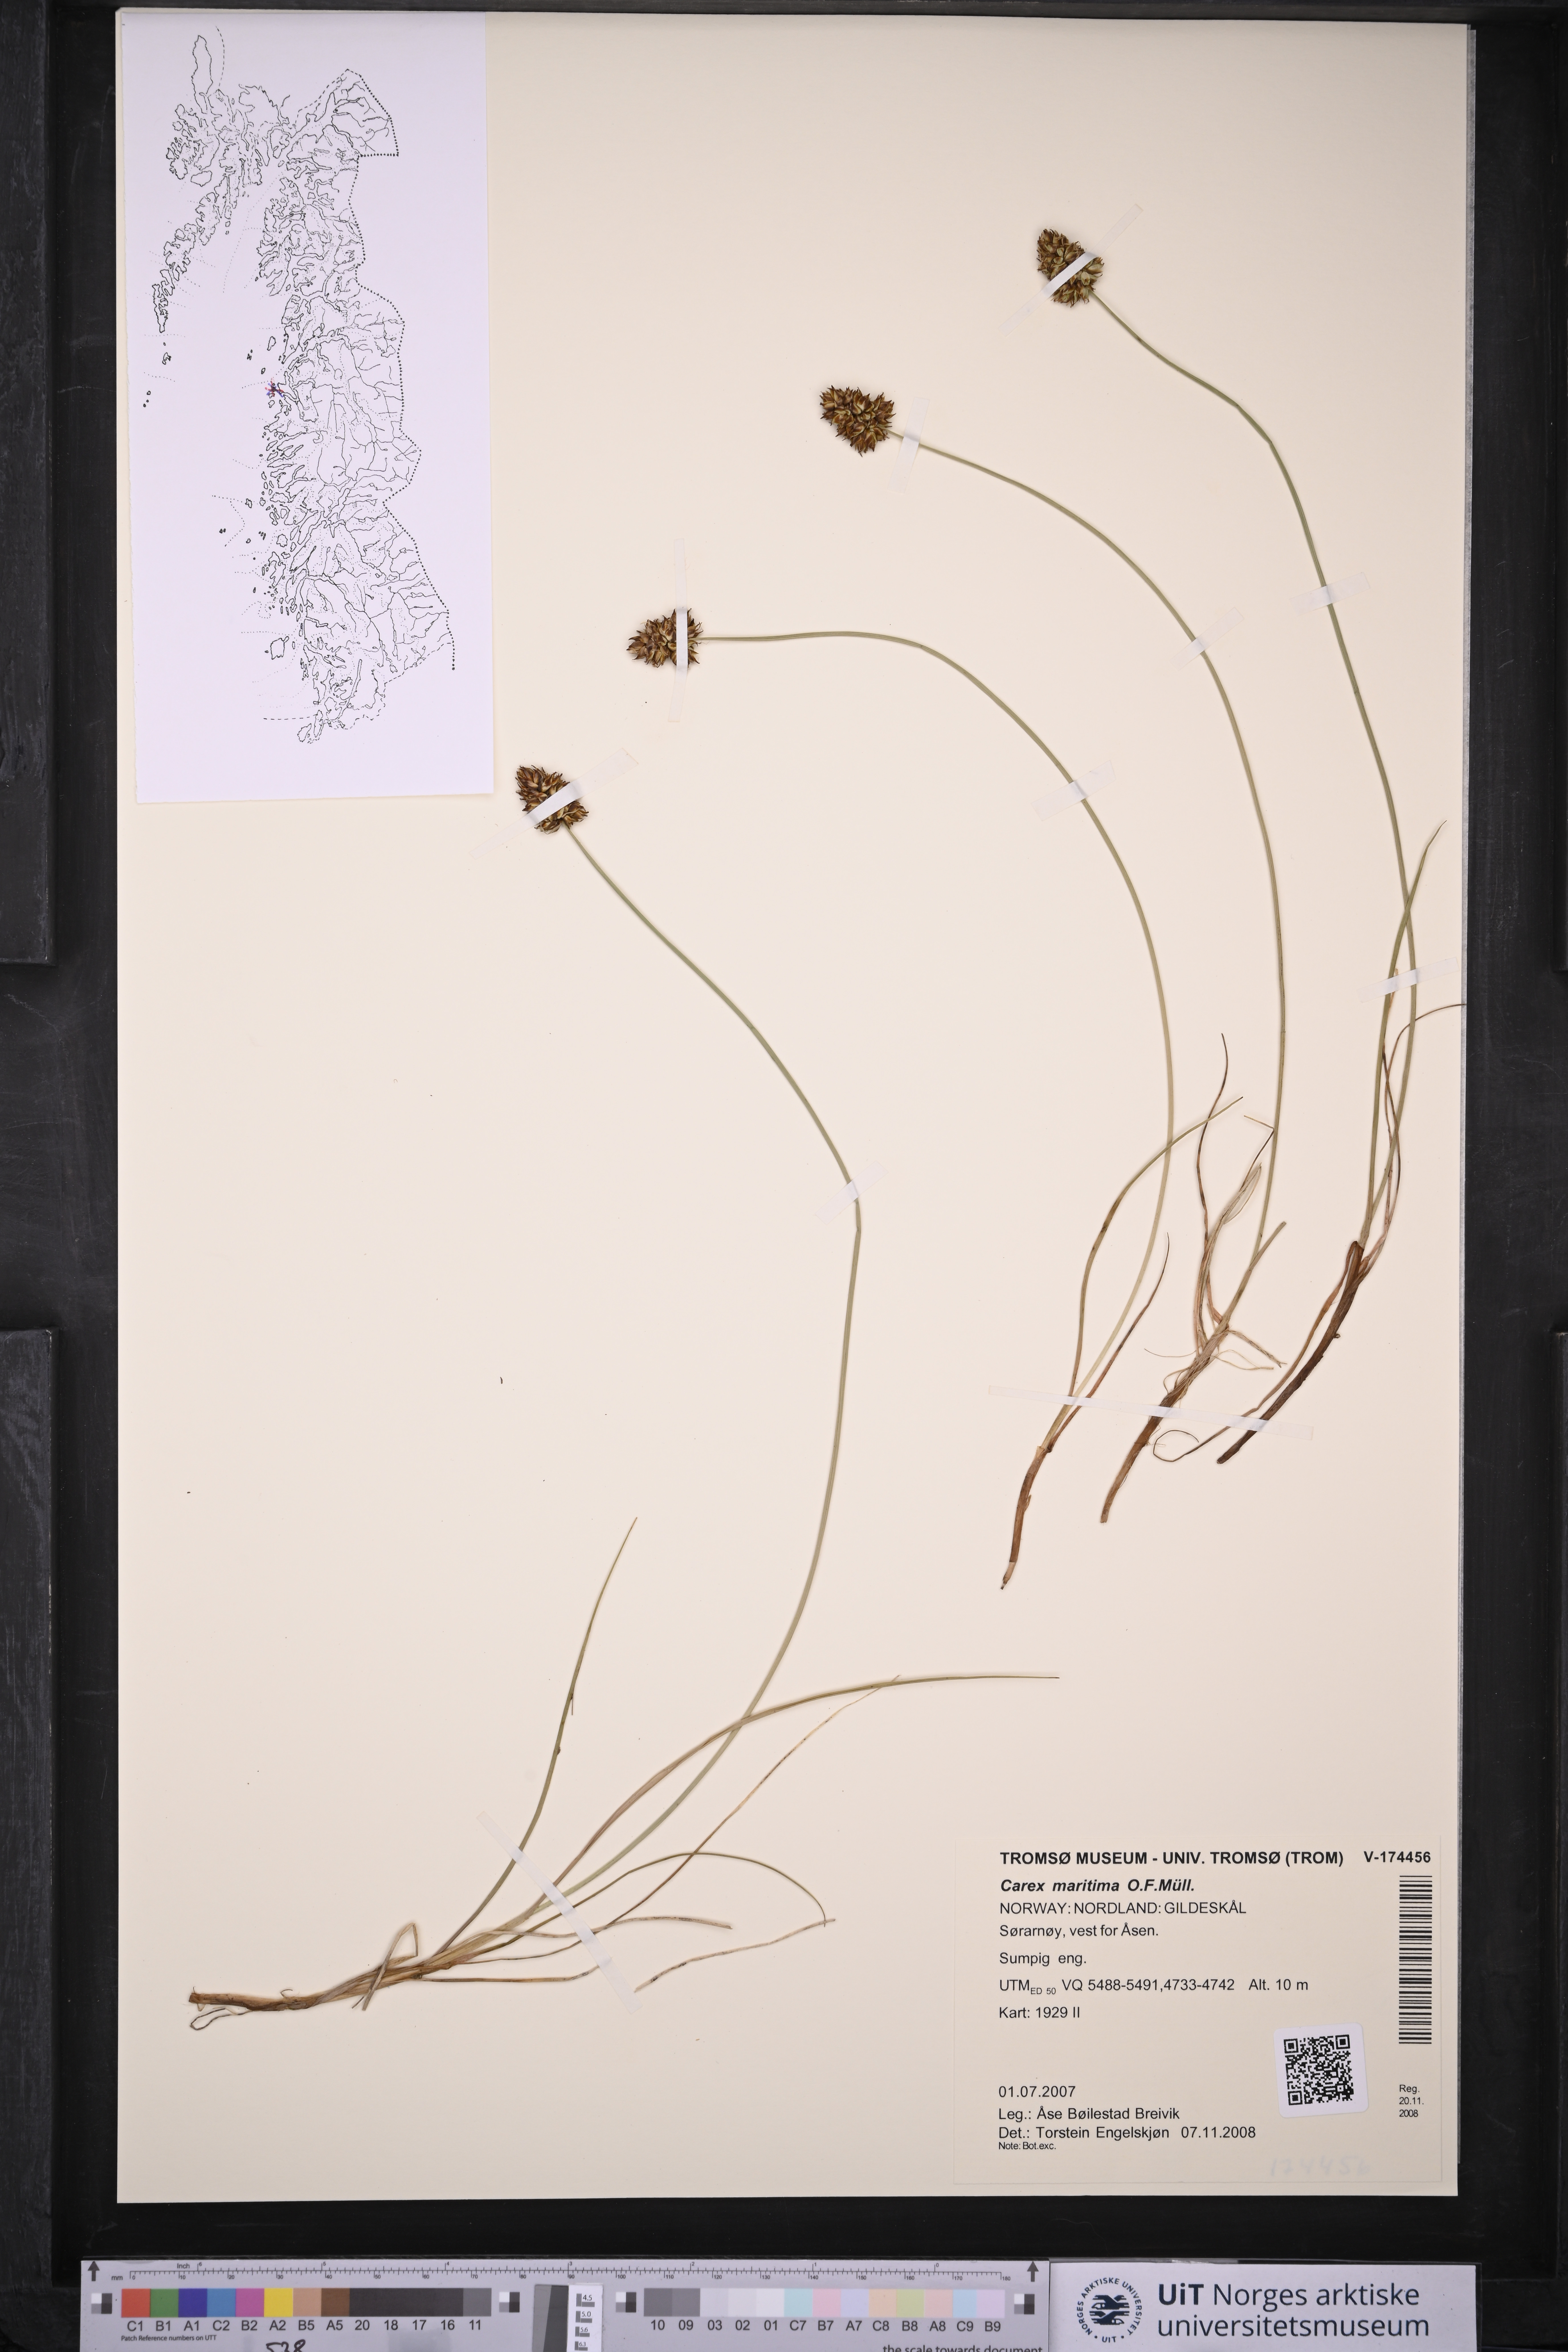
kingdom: Plantae
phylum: Tracheophyta
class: Liliopsida
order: Poales
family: Cyperaceae
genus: Carex
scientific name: Carex paleacea
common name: Chaffy sedge
